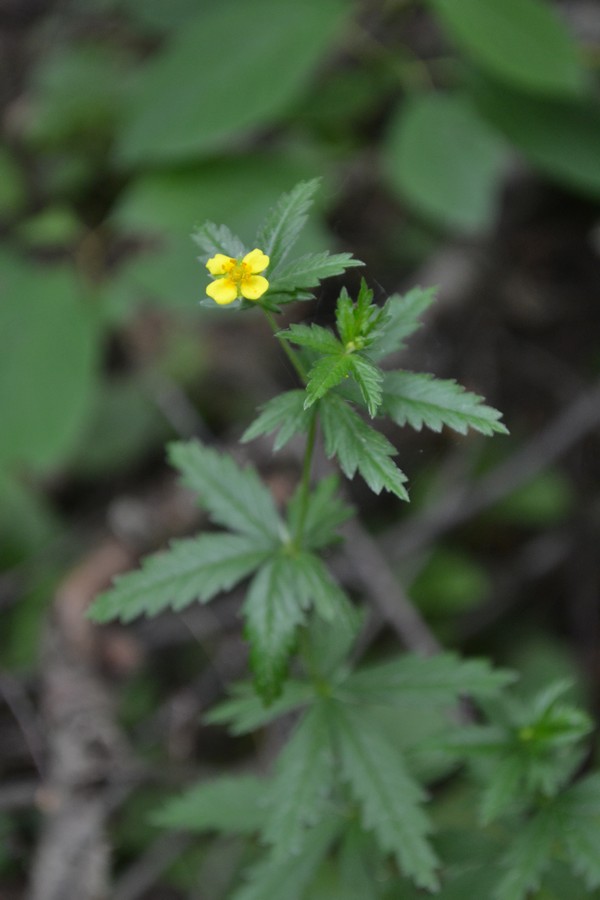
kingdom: Plantae
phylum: Tracheophyta
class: Magnoliopsida
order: Rosales
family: Rosaceae
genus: Potentilla
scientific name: Potentilla erecta
